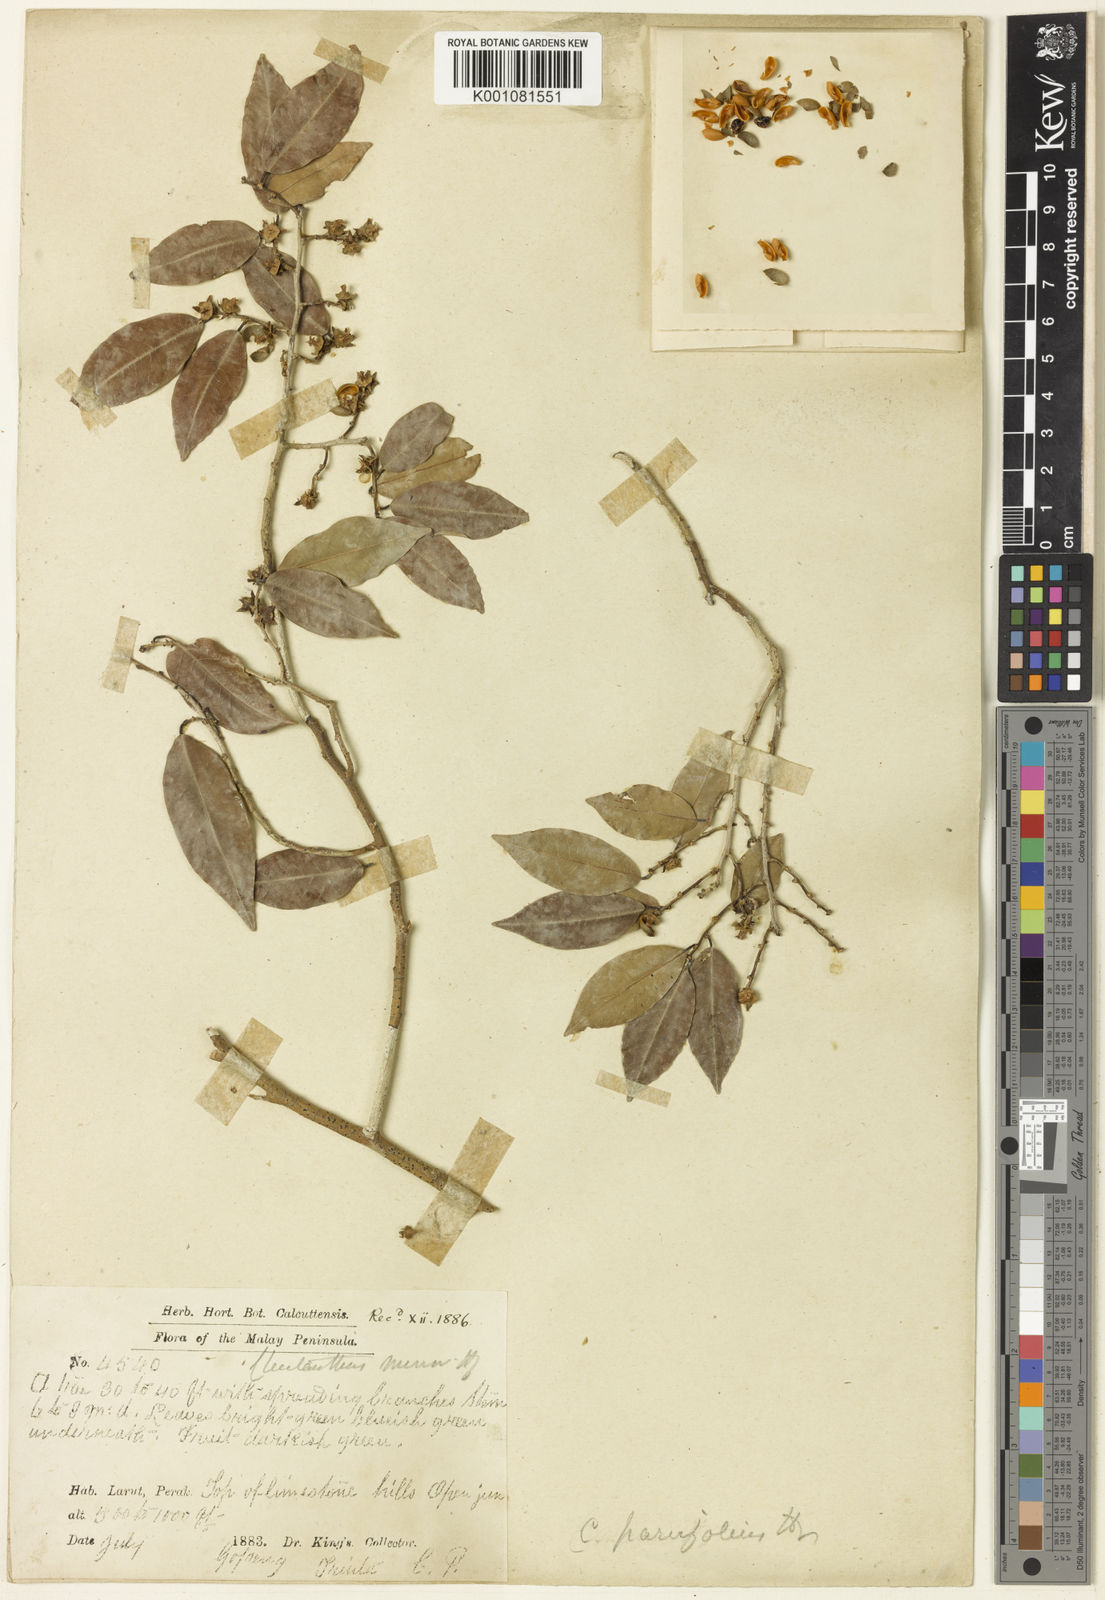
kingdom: Plantae
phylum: Tracheophyta
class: Magnoliopsida
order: Malpighiales
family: Phyllanthaceae
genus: Cleistanthus
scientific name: Cleistanthus parvifolius
